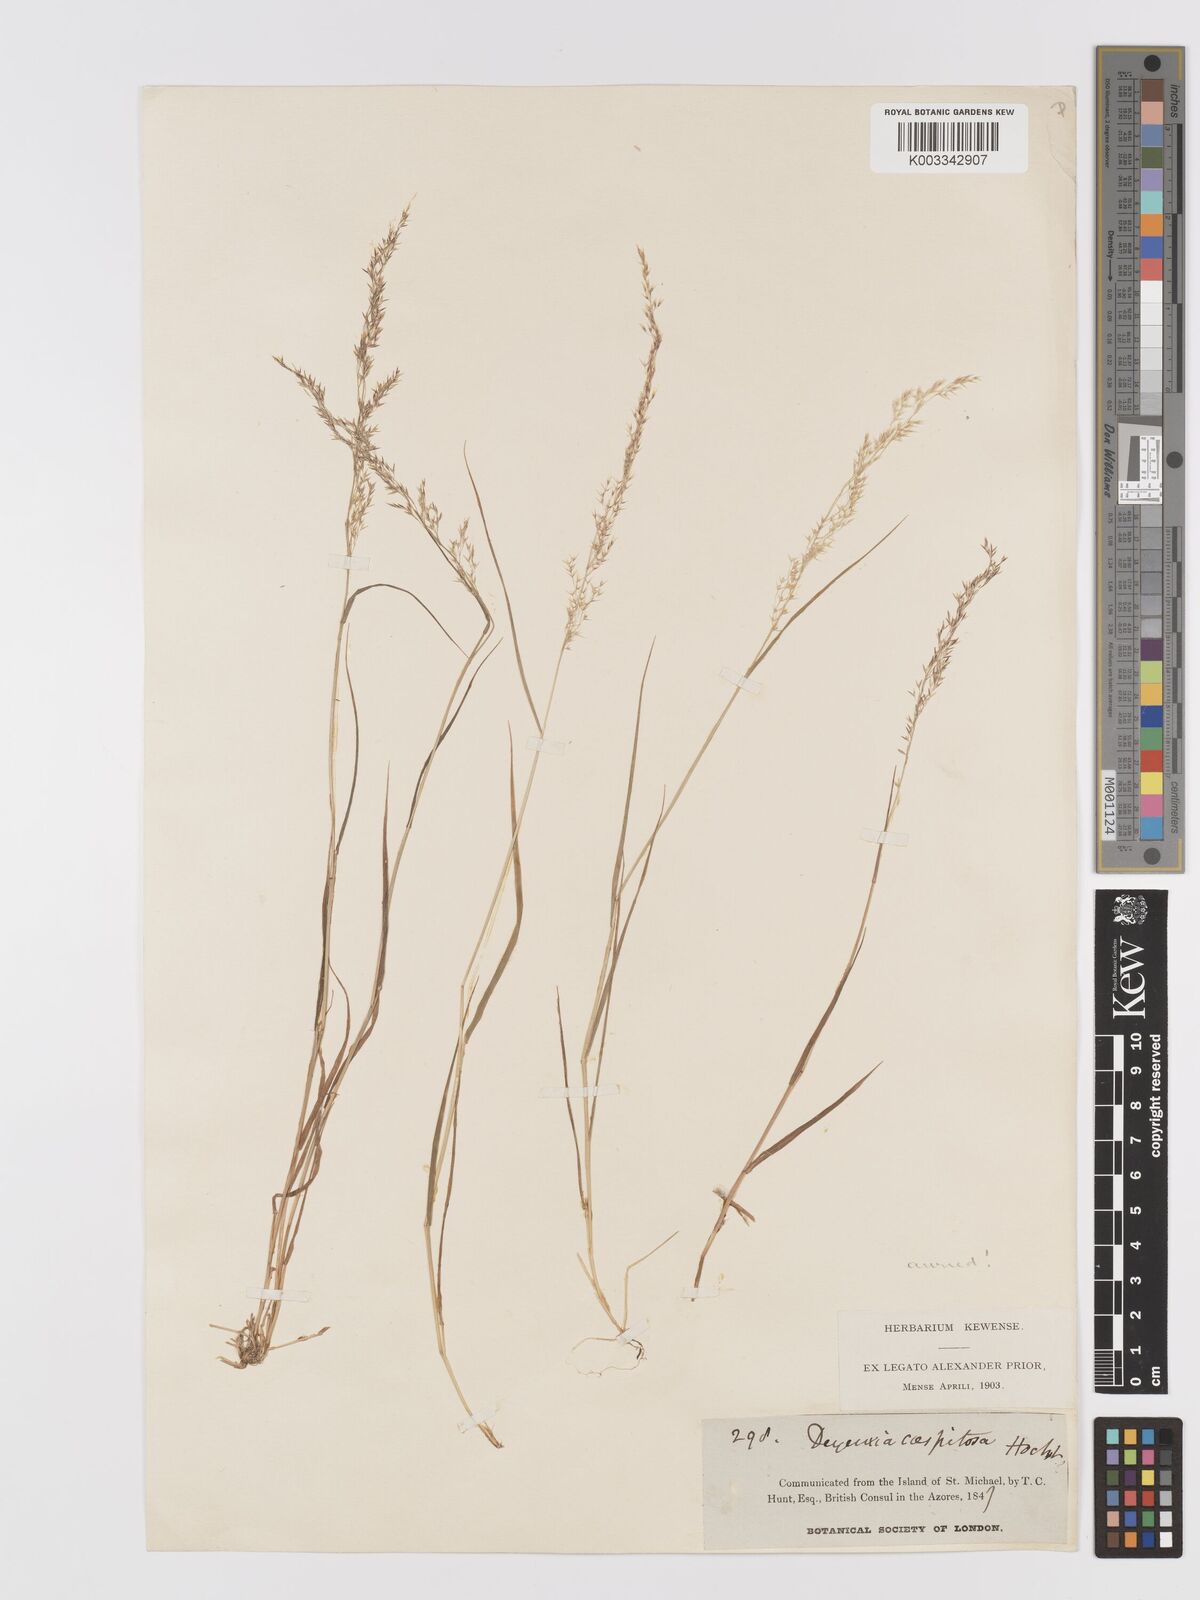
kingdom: Plantae
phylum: Tracheophyta
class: Liliopsida
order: Poales
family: Poaceae
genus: Agrostis
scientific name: Agrostis
